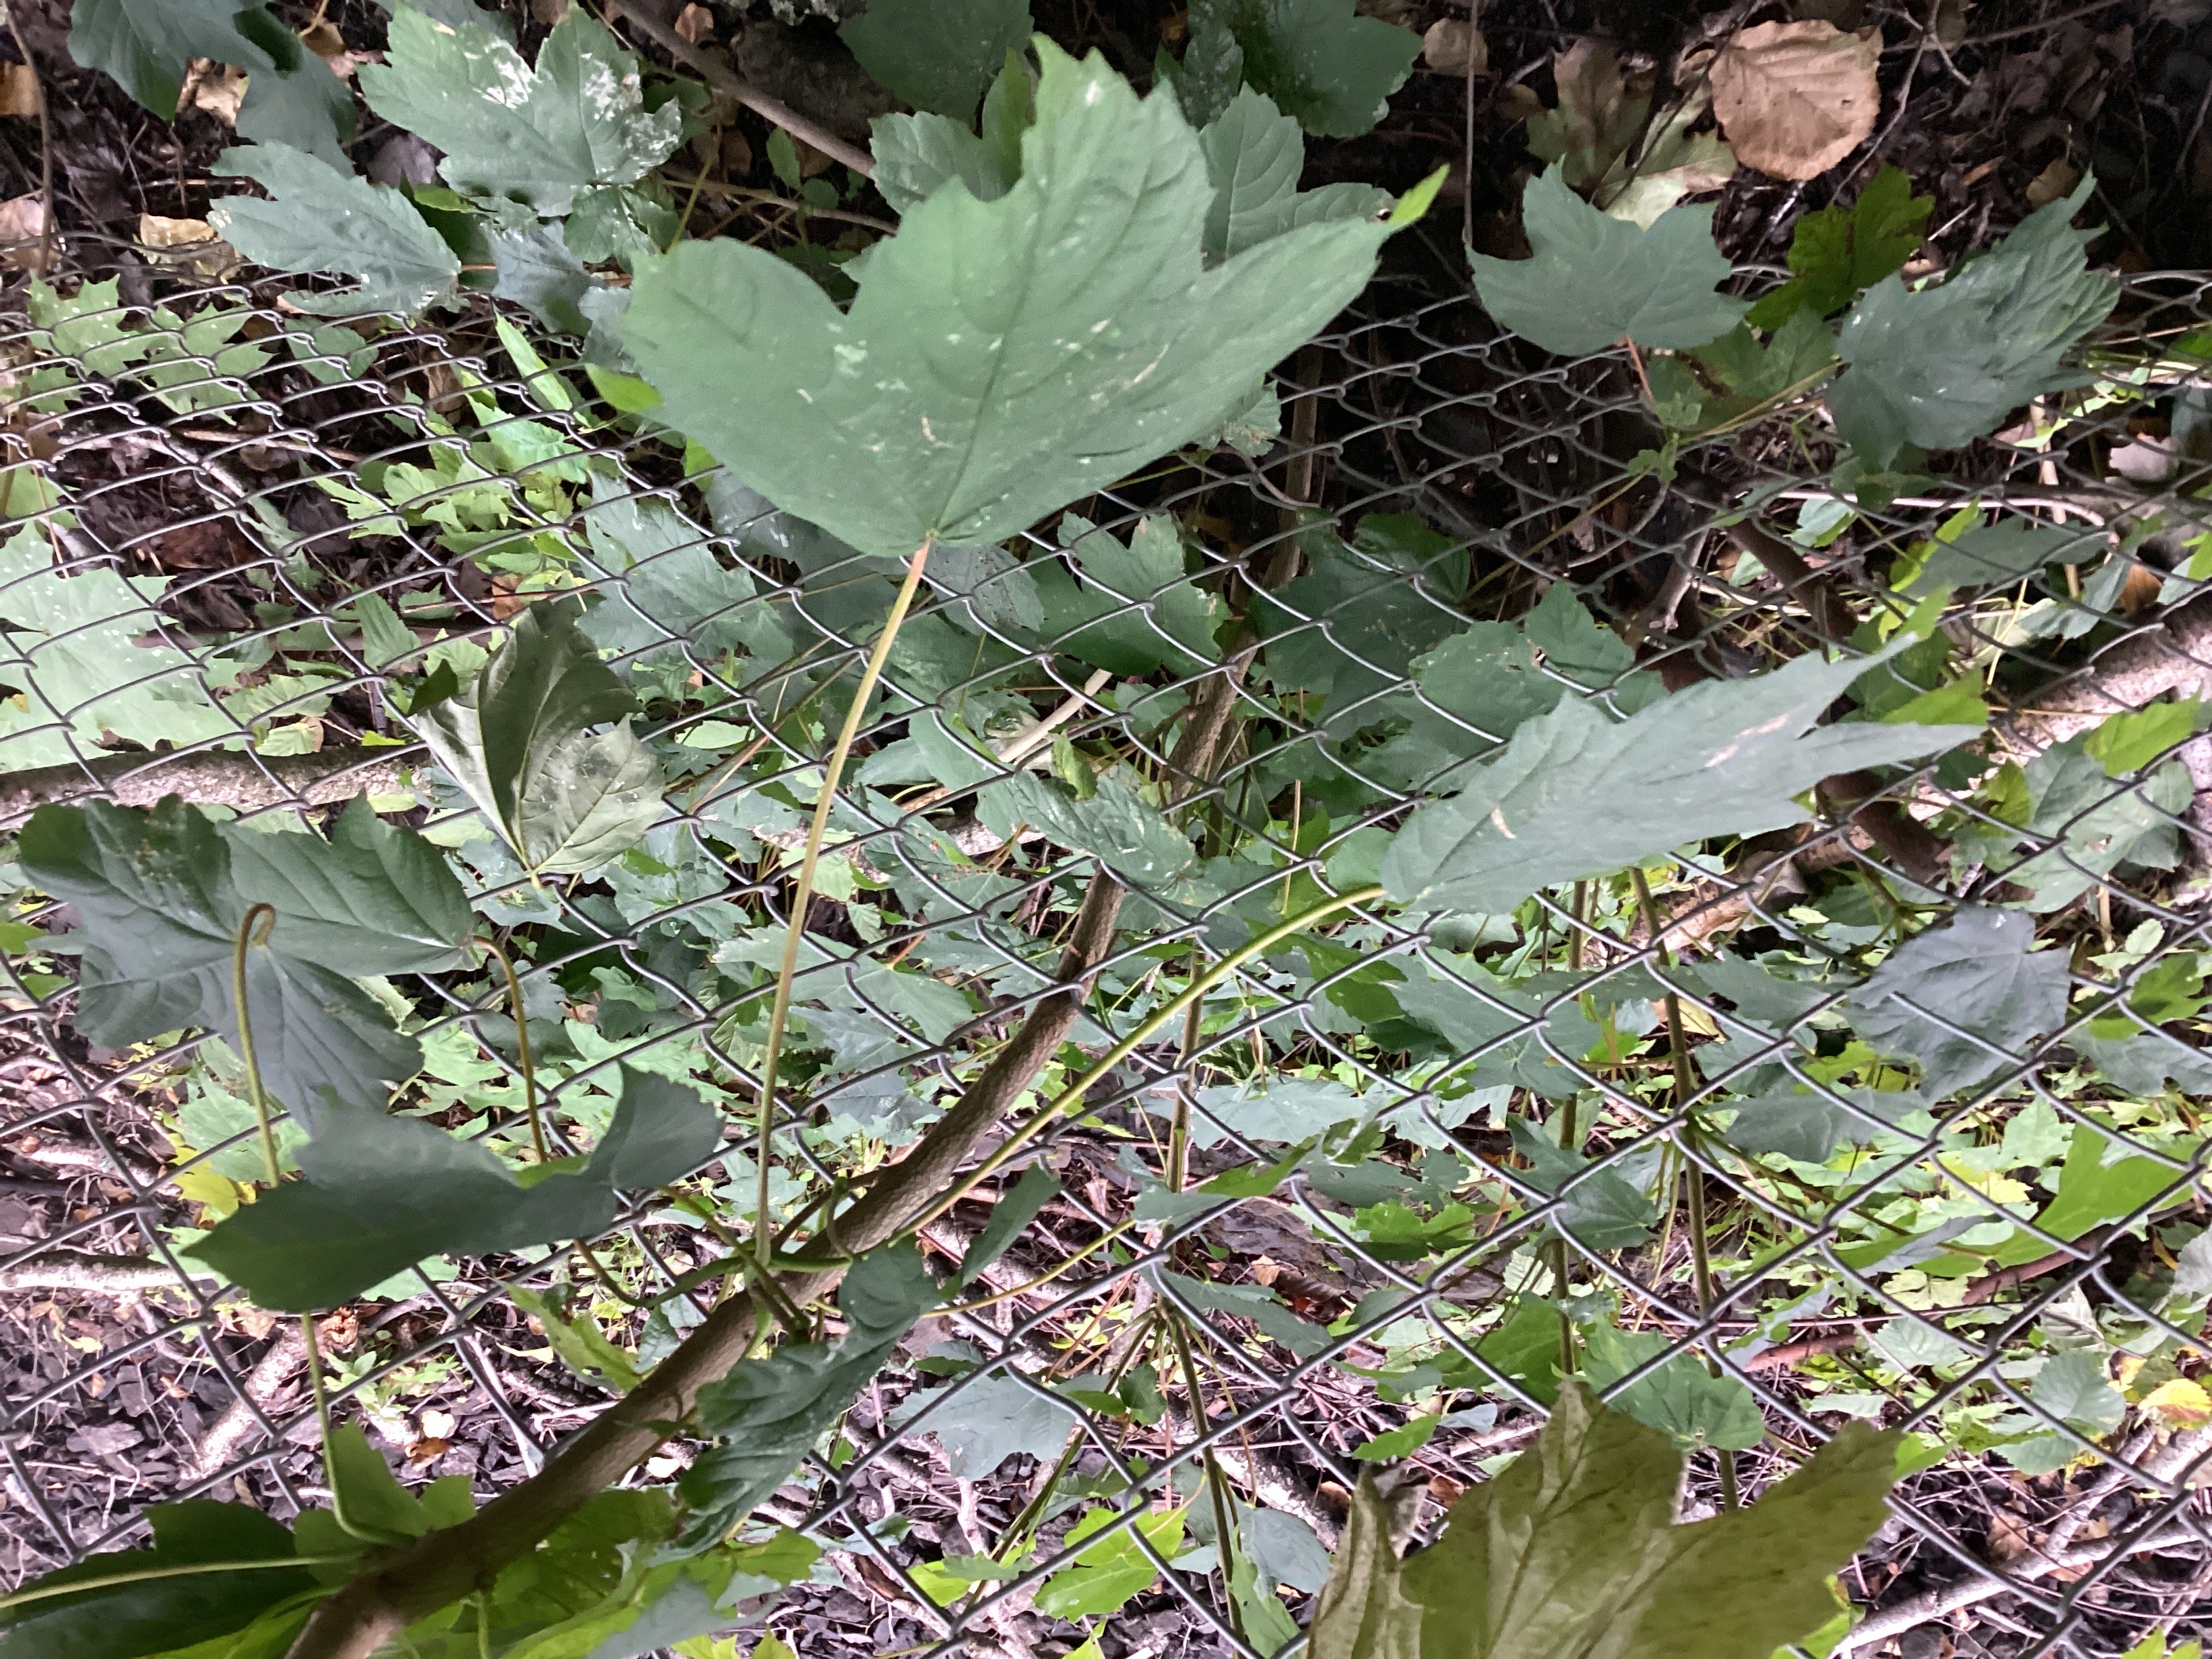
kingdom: Plantae
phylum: Tracheophyta
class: Magnoliopsida
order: Sapindales
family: Sapindaceae
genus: Acer
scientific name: Acer pseudoplatanus
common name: platanlønn
